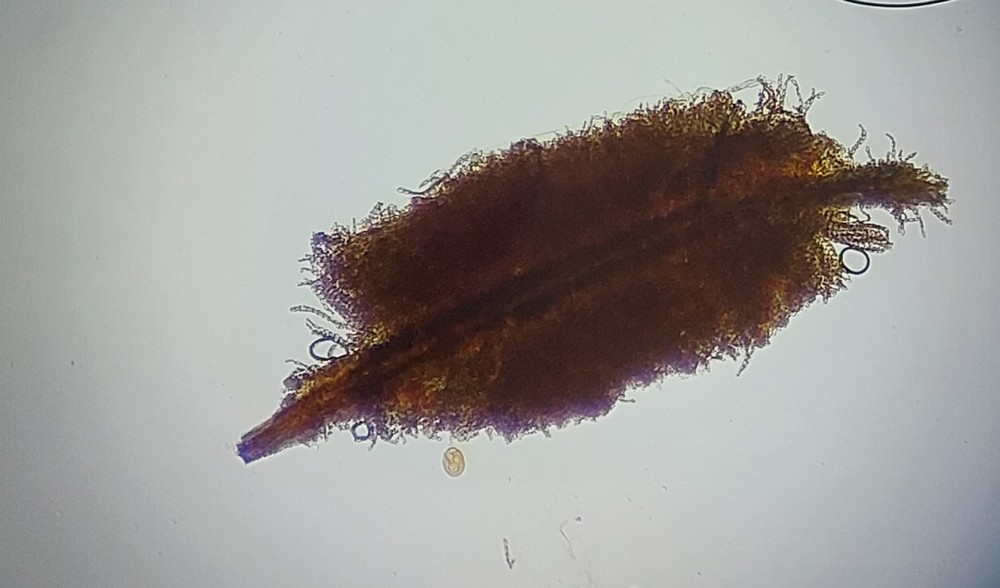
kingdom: Fungi
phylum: Ascomycota
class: Sordariomycetes
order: Microascales
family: Microascaceae
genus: Cephalotrichum
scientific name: Cephalotrichum stemonitis
